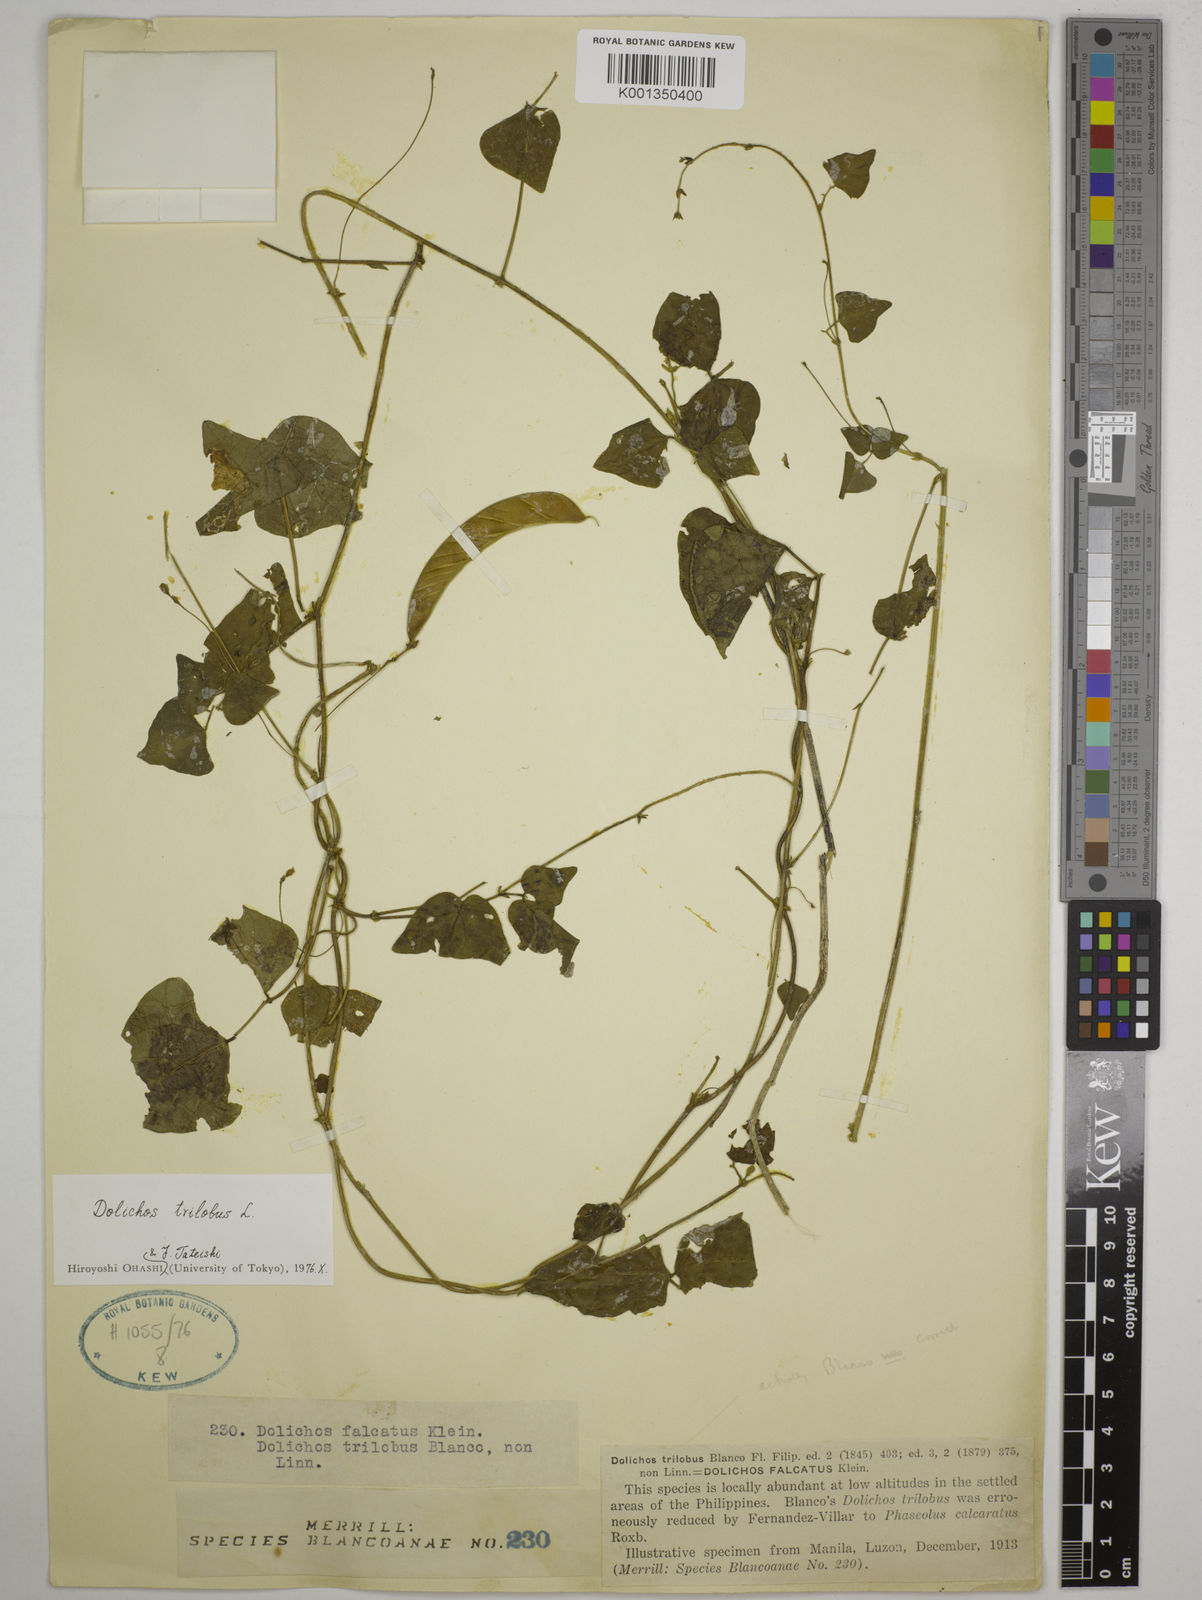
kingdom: Plantae
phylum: Tracheophyta
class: Magnoliopsida
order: Fabales
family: Fabaceae
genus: Dolichos
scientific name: Dolichos
